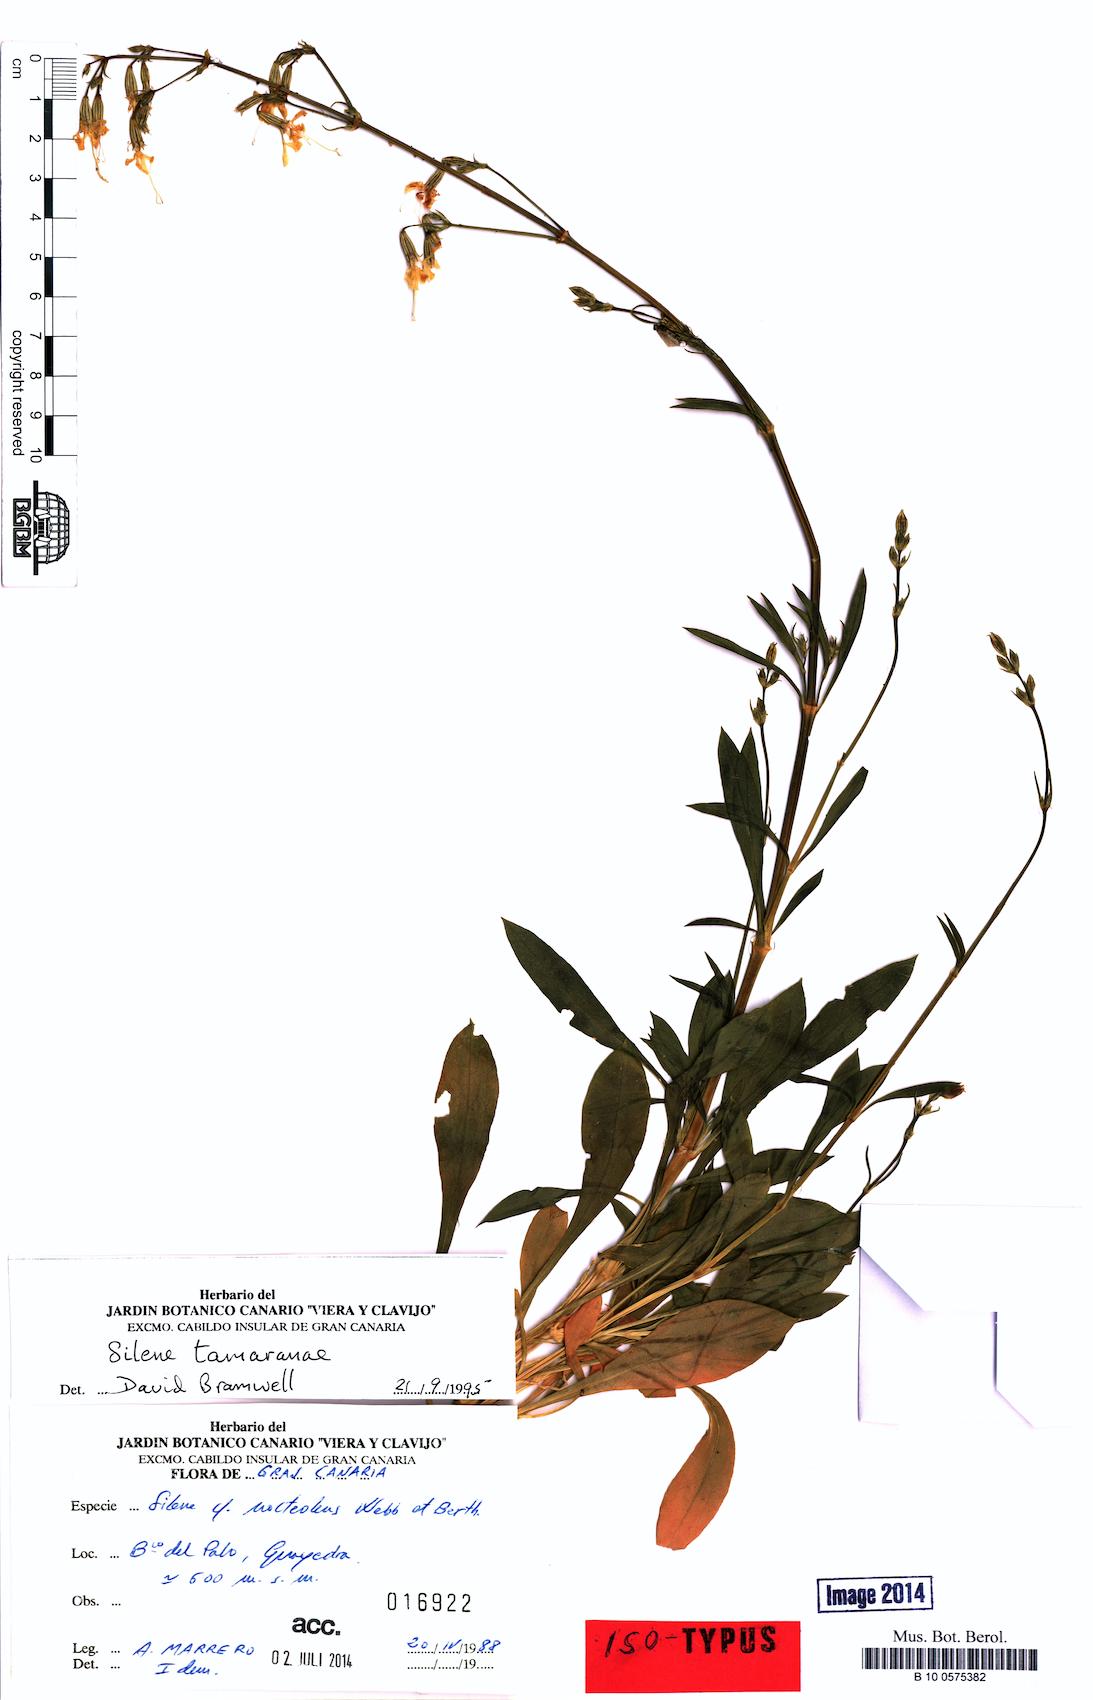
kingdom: Plantae
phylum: Tracheophyta
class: Magnoliopsida
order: Caryophyllales
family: Caryophyllaceae
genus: Silene
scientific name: Silene tamaranae
